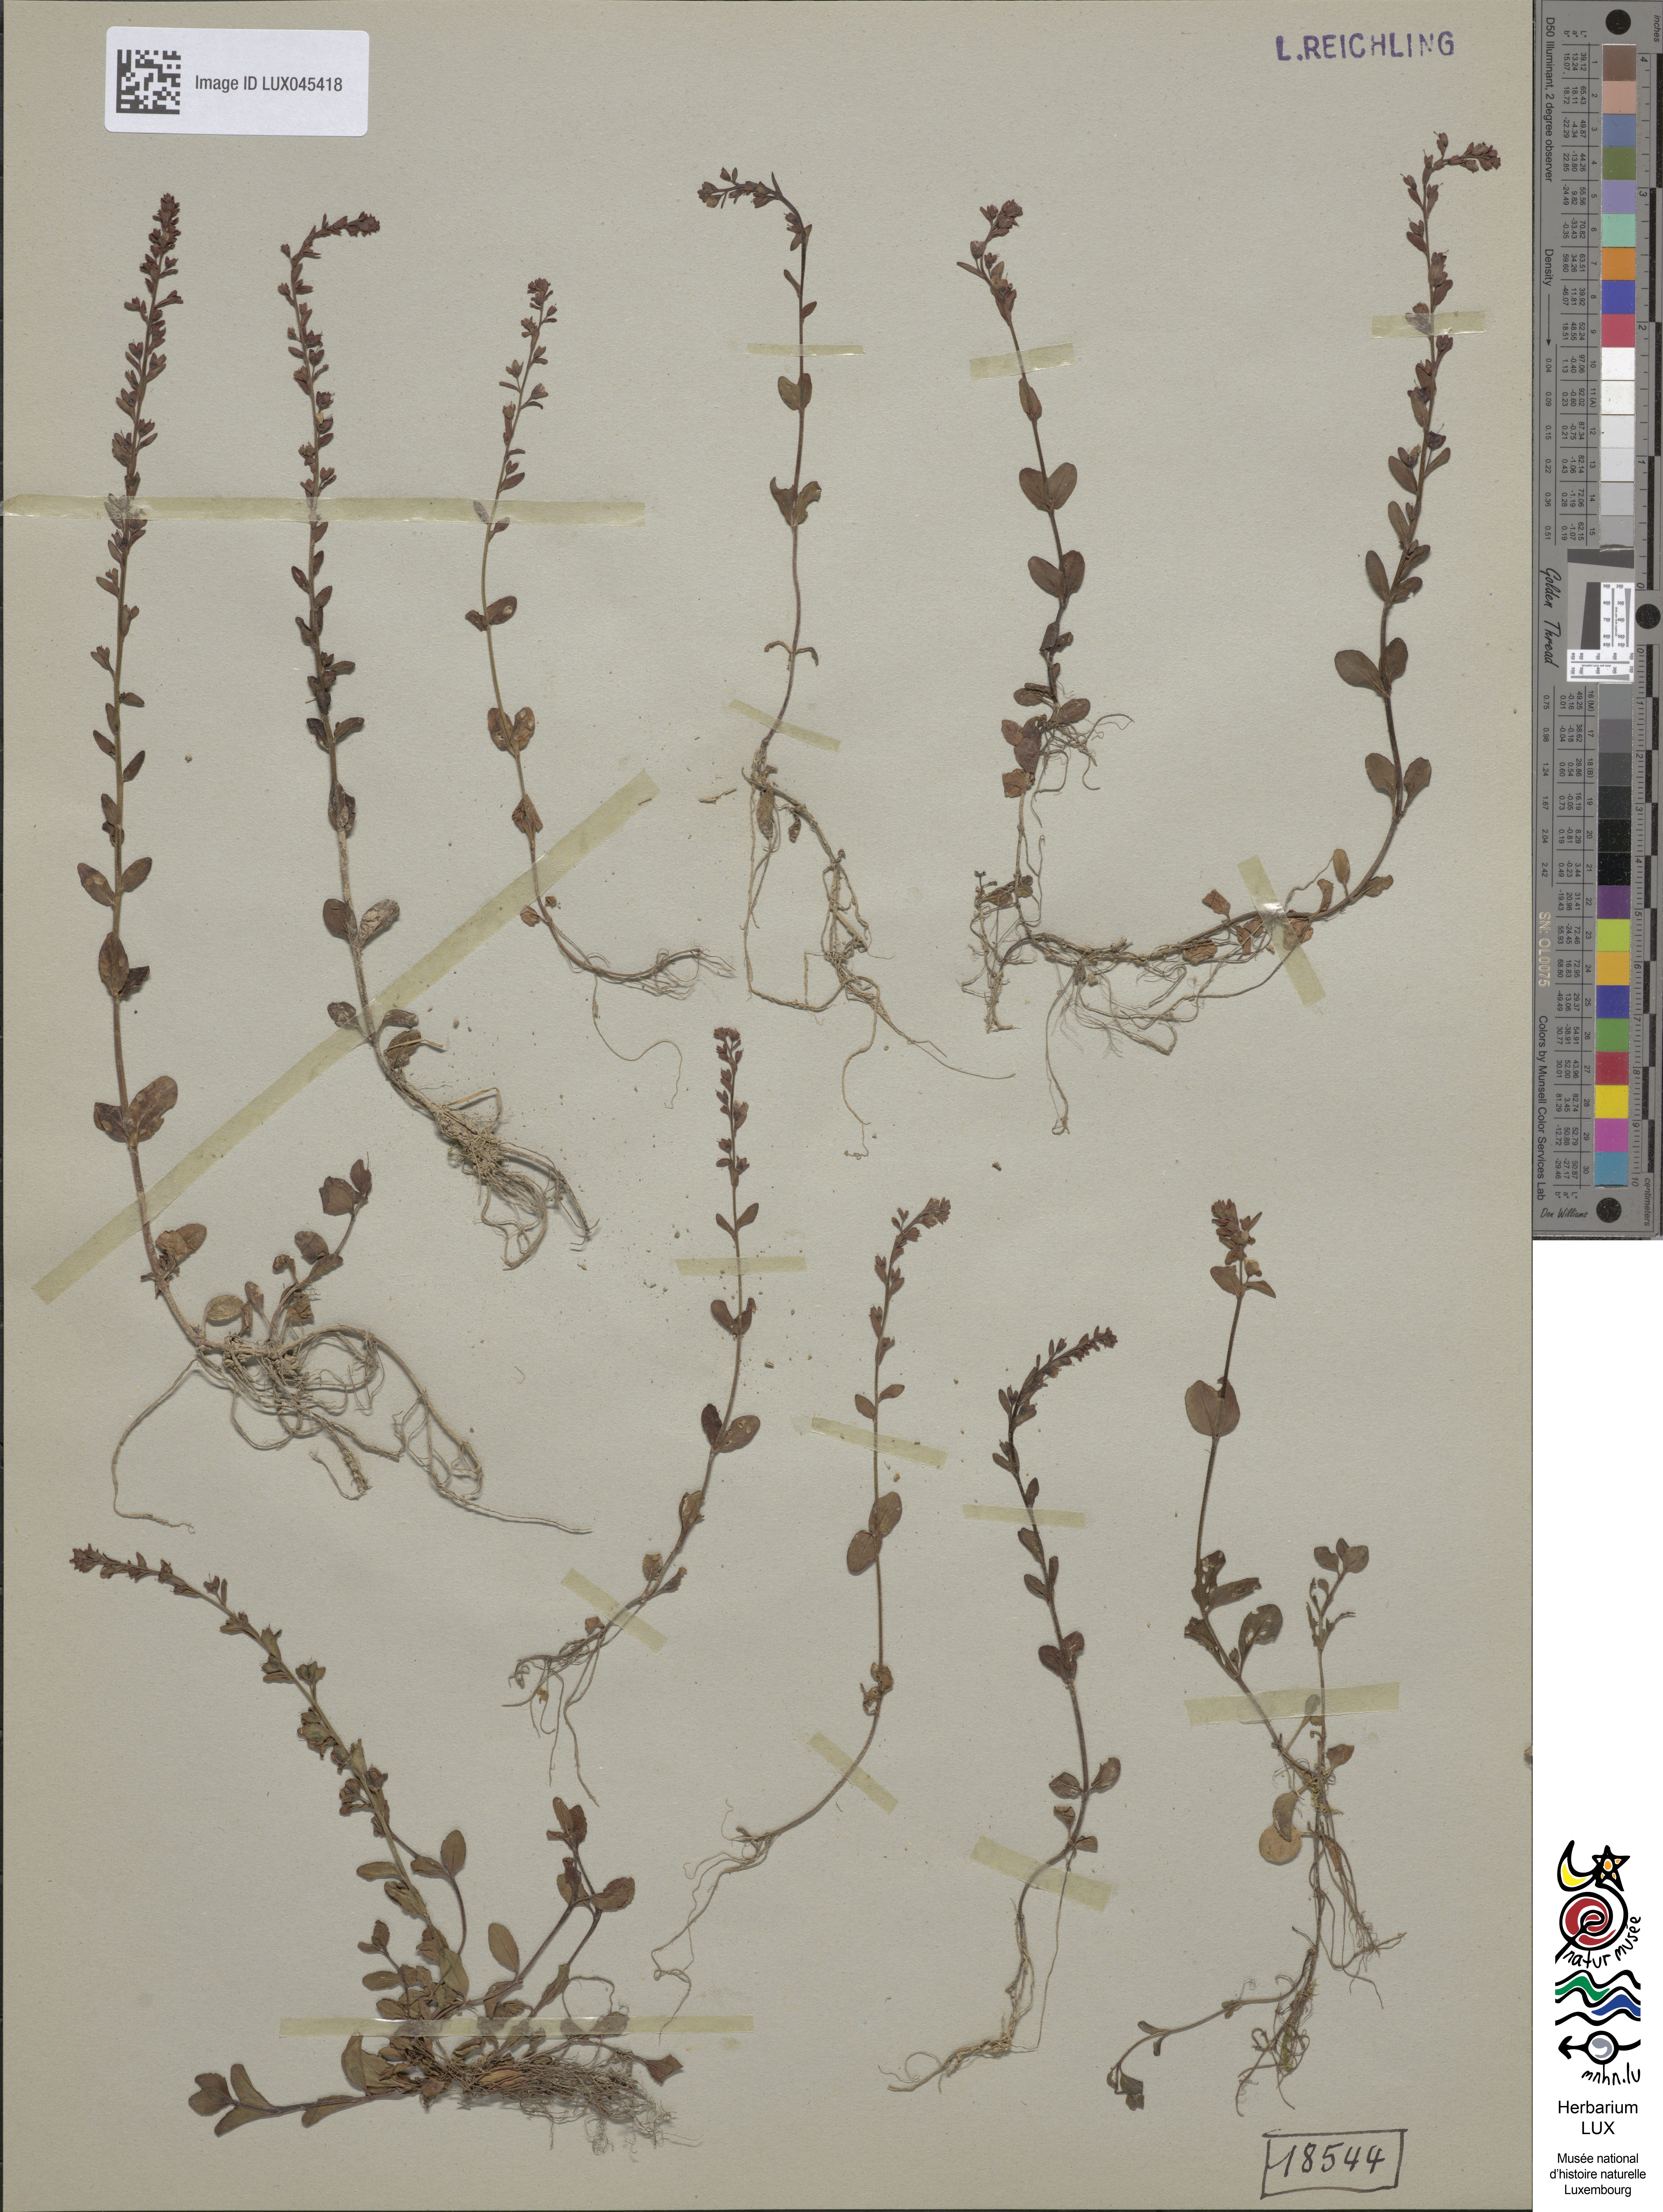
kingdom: Plantae
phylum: Tracheophyta
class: Magnoliopsida
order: Lamiales
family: Plantaginaceae
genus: Veronica
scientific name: Veronica serpyllifolia
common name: Thyme-leaved speedwell
